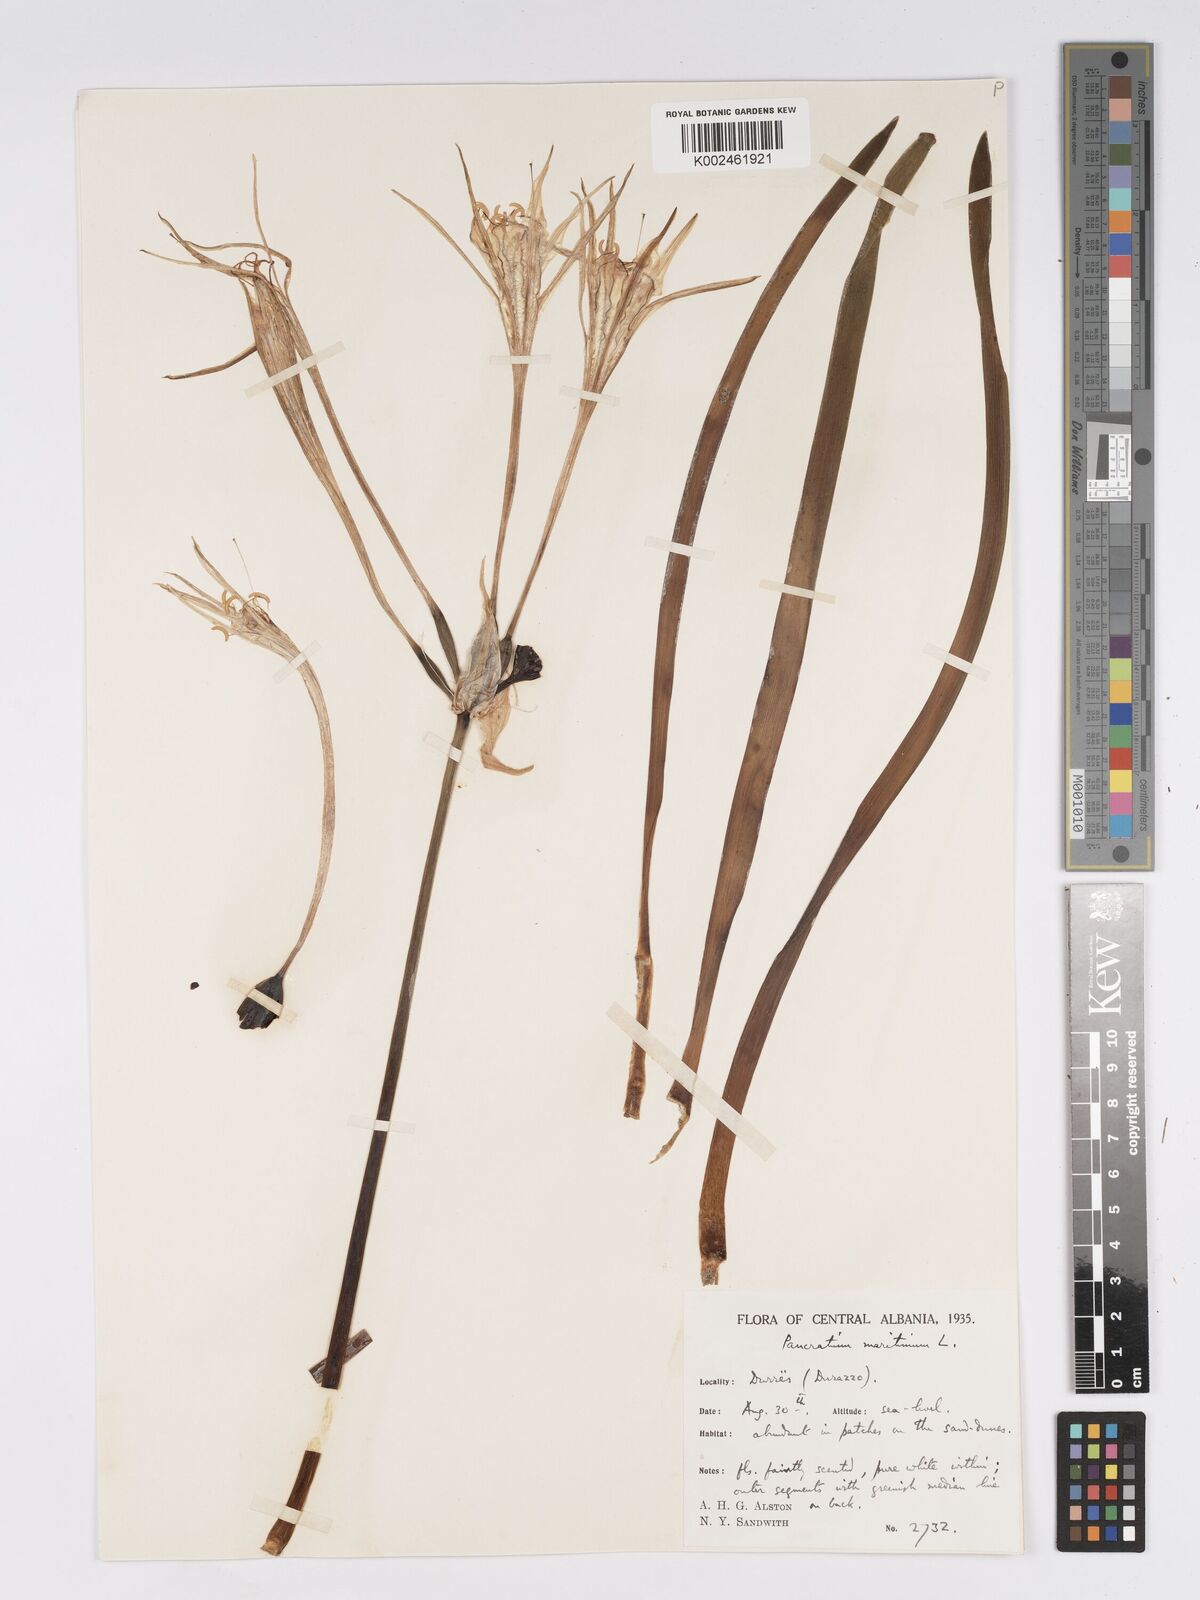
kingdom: Plantae
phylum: Tracheophyta
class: Liliopsida
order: Asparagales
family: Amaryllidaceae
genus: Pancratium
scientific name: Pancratium maritimum
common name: Sea-daffodil
